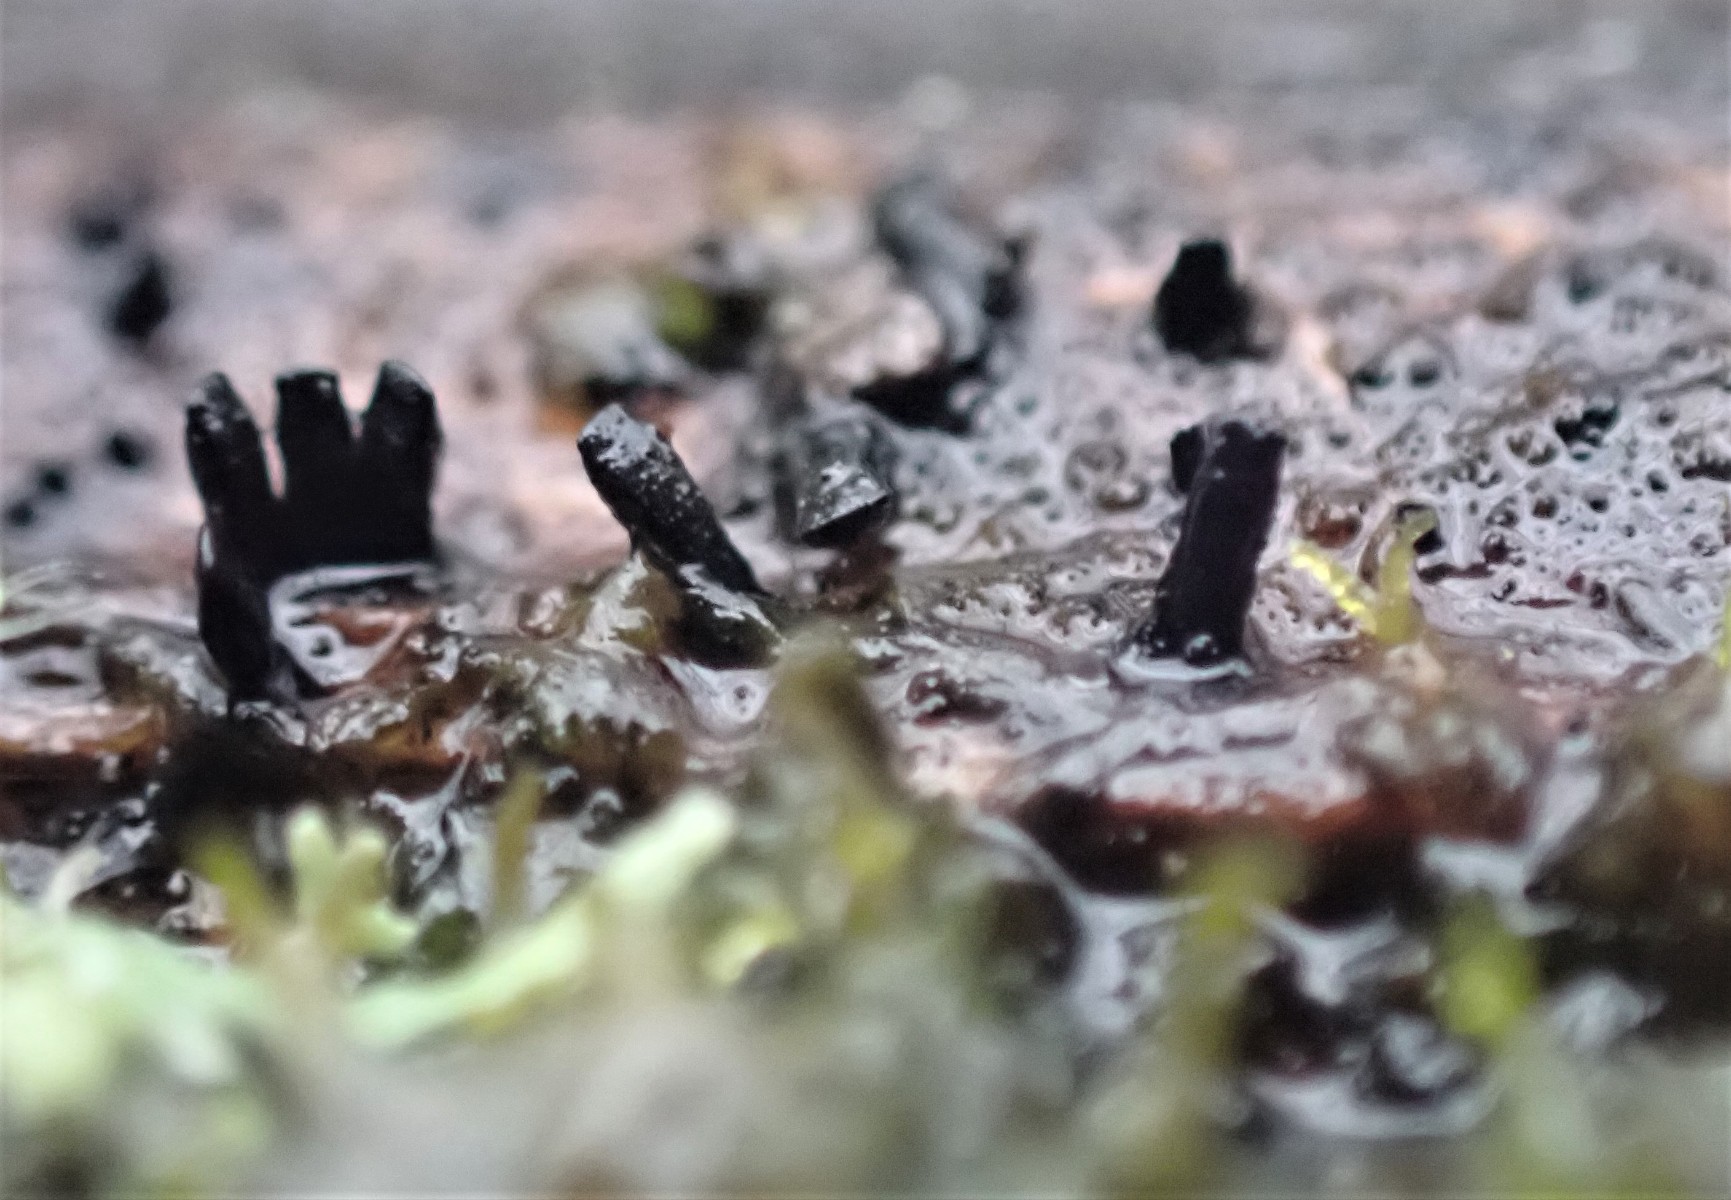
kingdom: Fungi
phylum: Ascomycota
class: Eurotiomycetes
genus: Glyphium
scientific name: Glyphium elatum
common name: kuløkse
